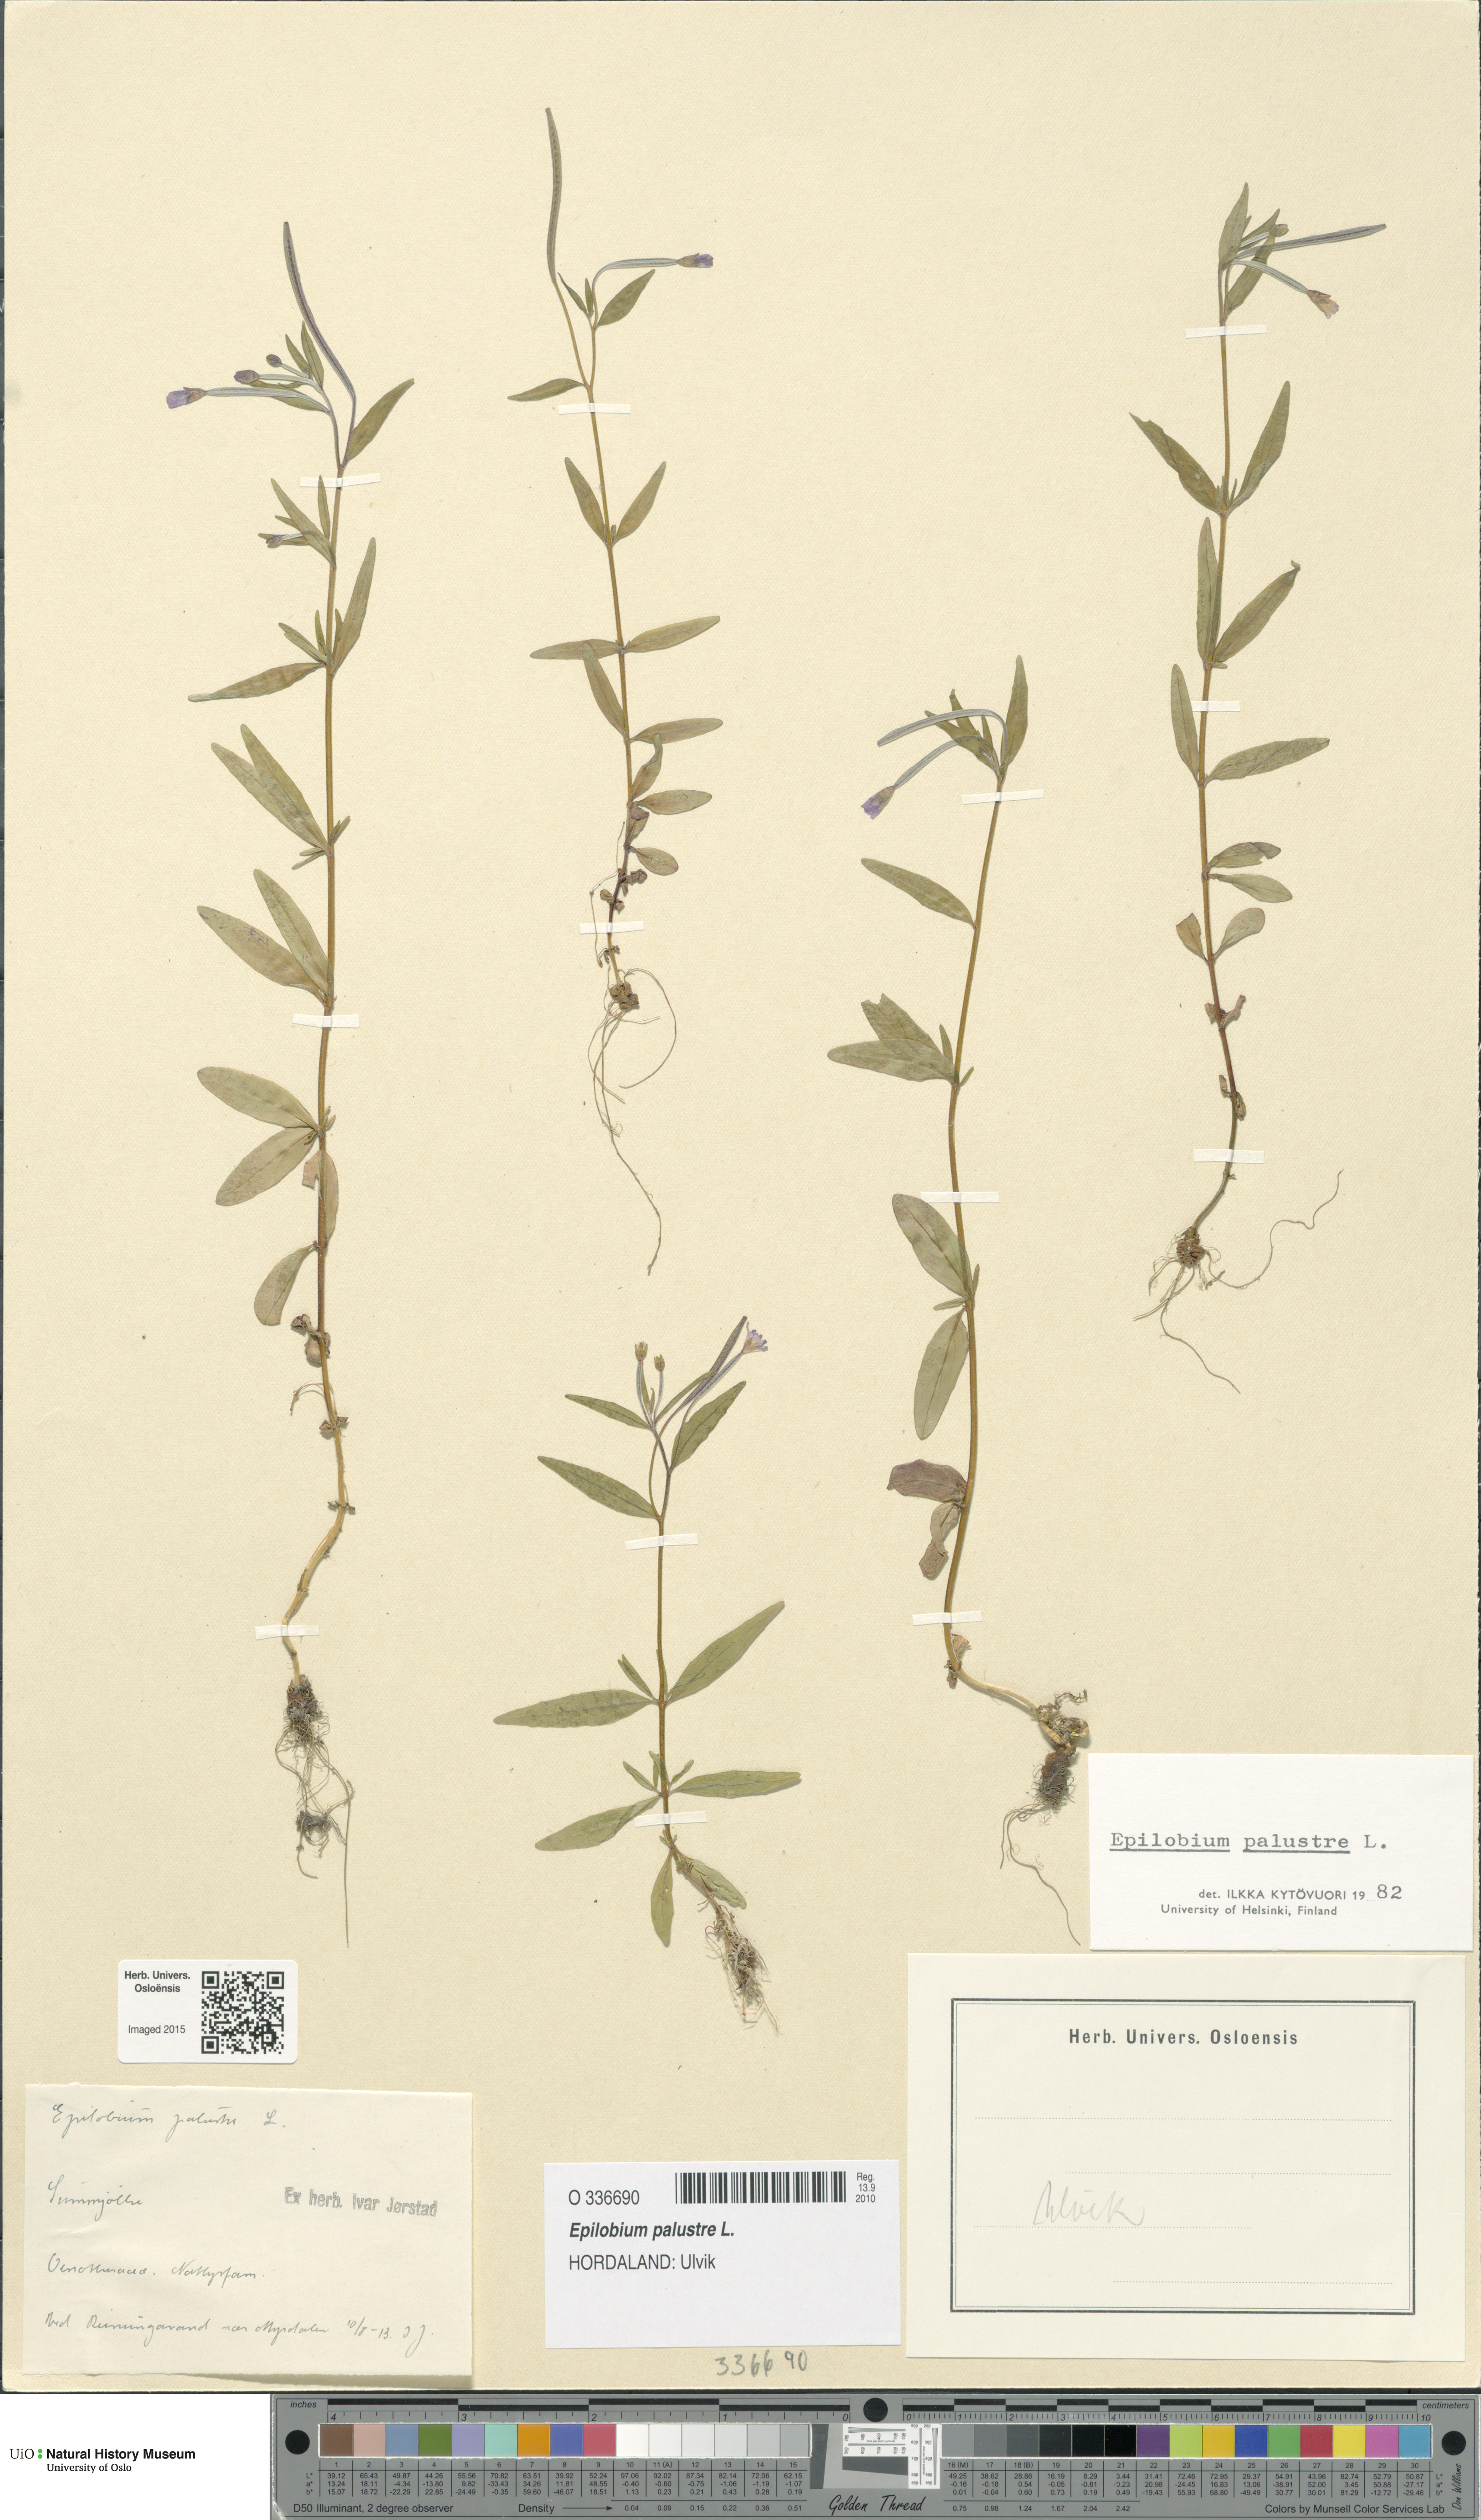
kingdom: Plantae
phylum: Tracheophyta
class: Magnoliopsida
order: Myrtales
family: Onagraceae
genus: Epilobium
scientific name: Epilobium palustre
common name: Marsh willowherb
